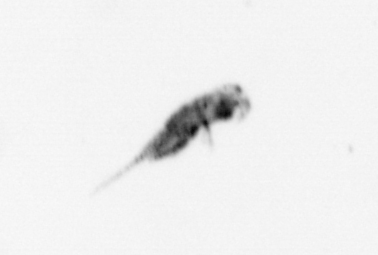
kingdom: Animalia
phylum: Arthropoda
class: Copepoda
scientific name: Copepoda
